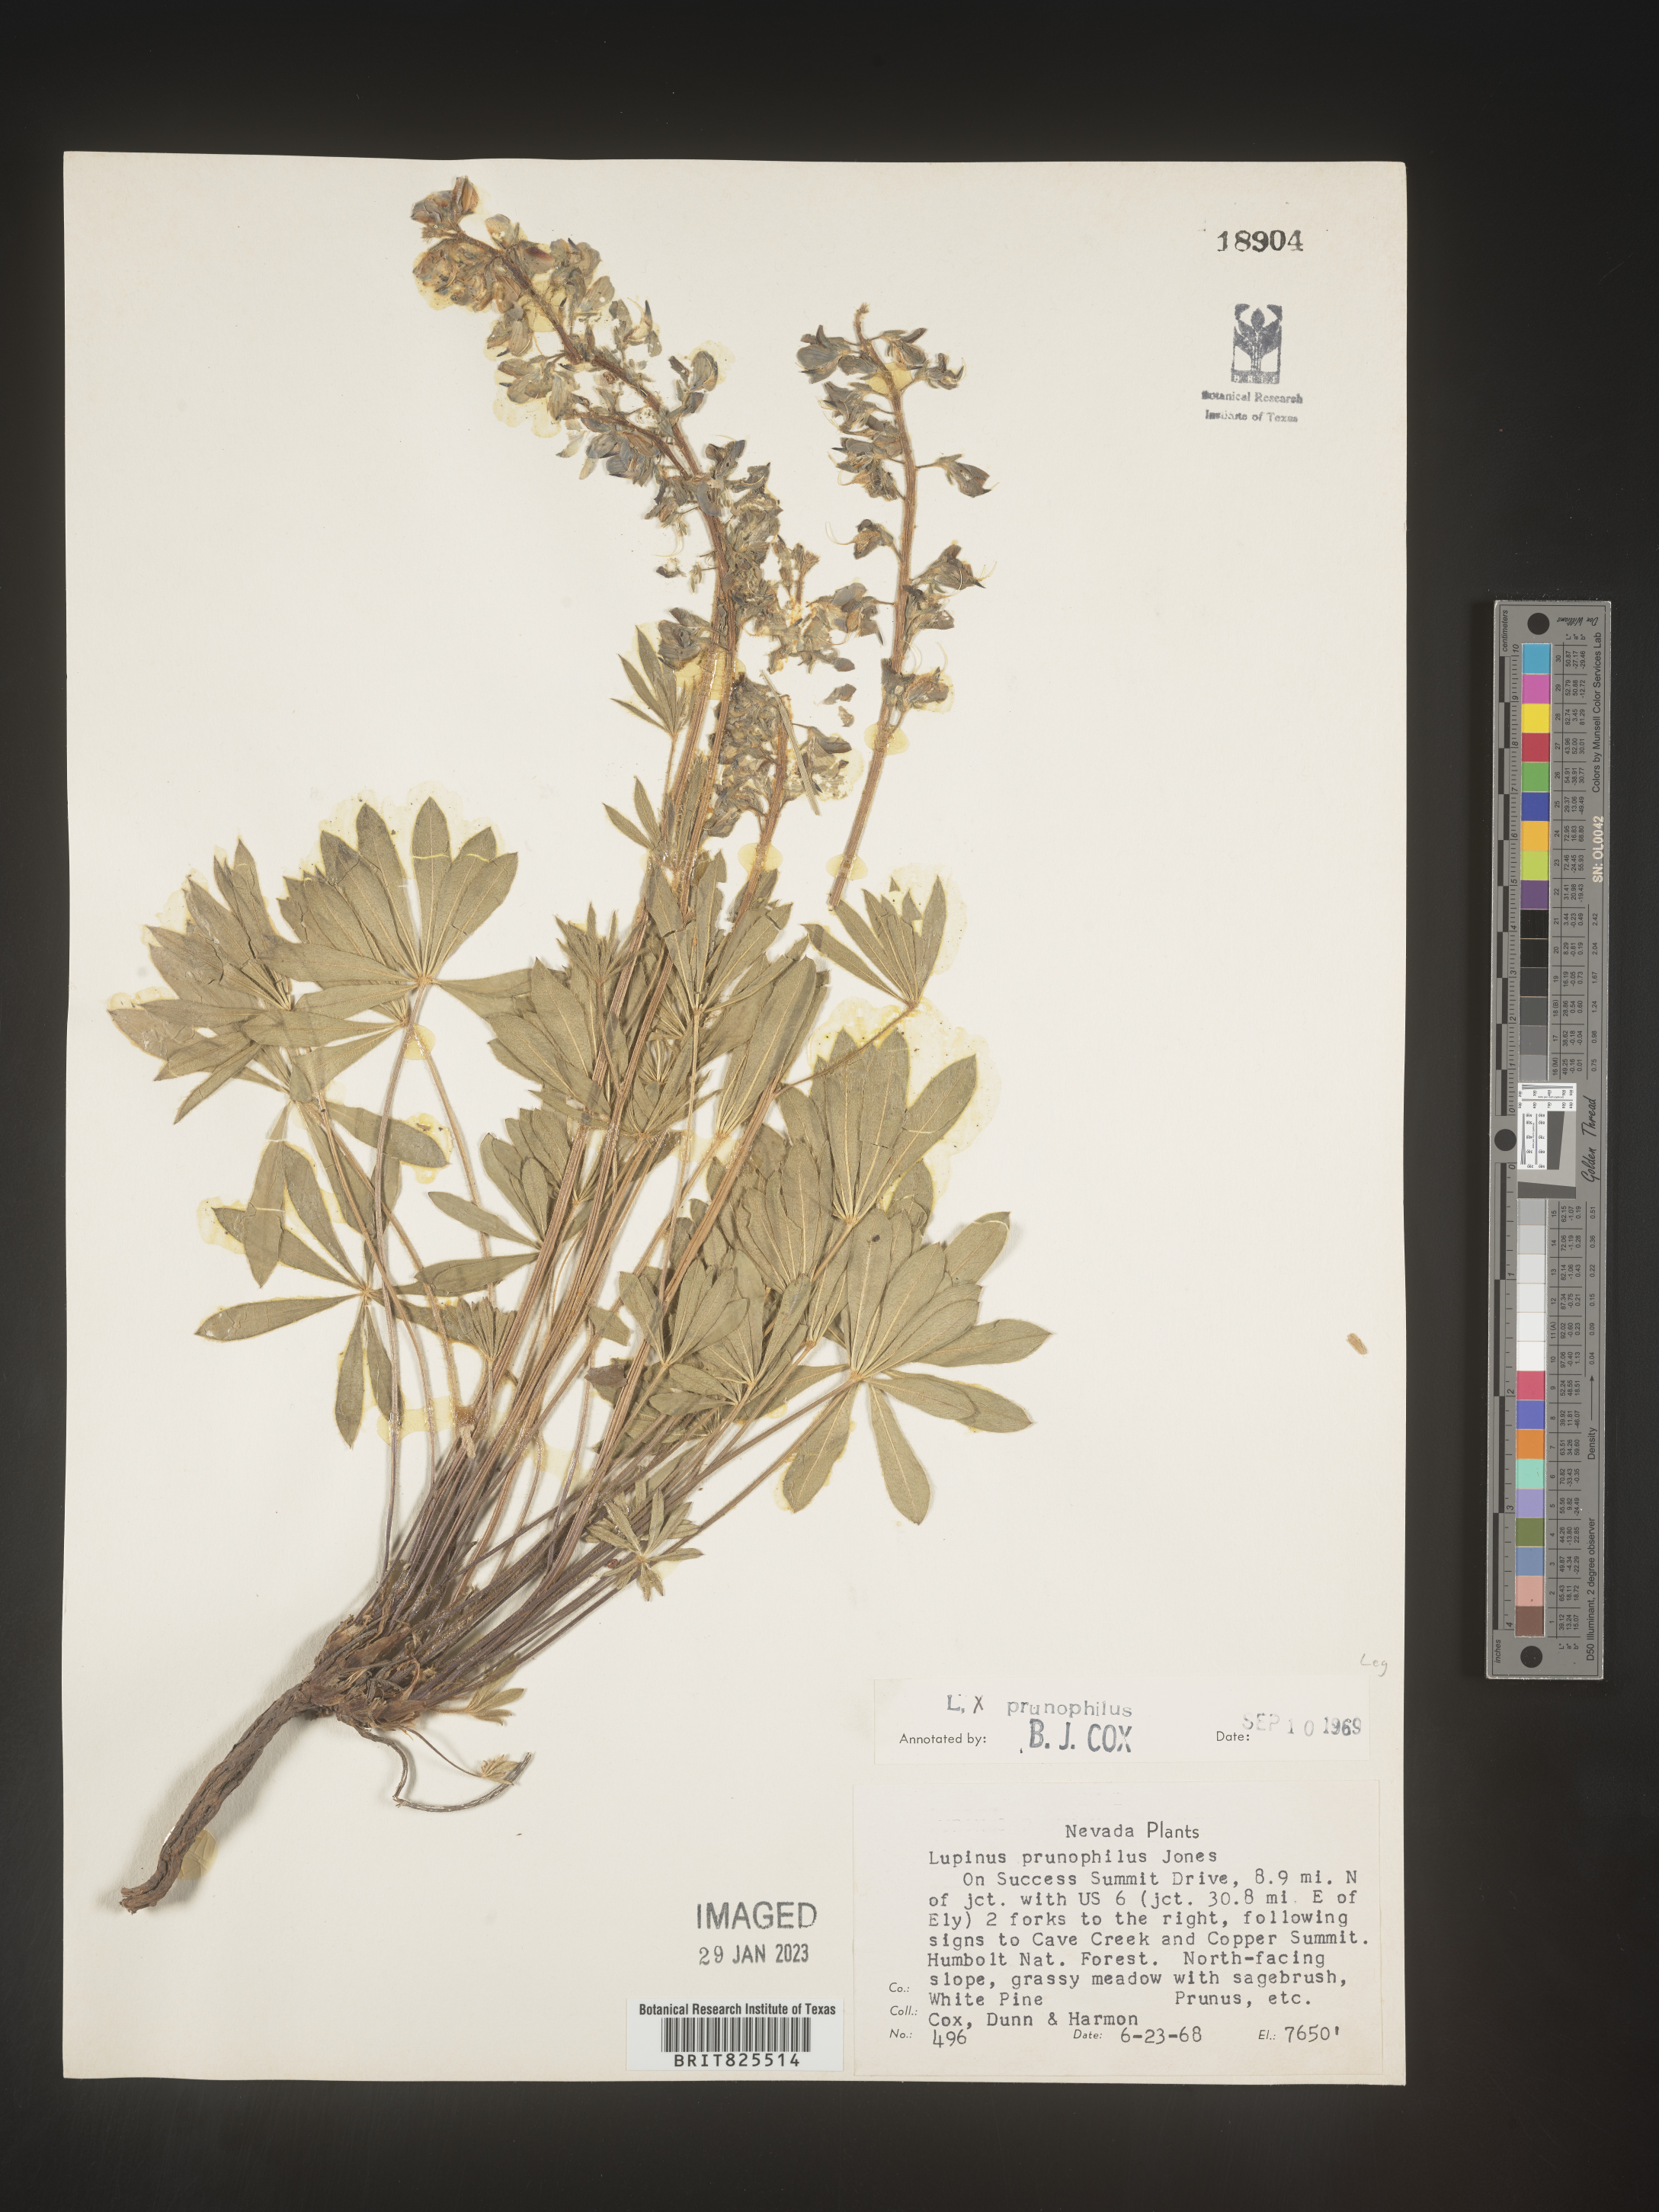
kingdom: Plantae
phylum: Tracheophyta
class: Magnoliopsida
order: Fabales
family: Fabaceae
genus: Lupinus
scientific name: Lupinus
